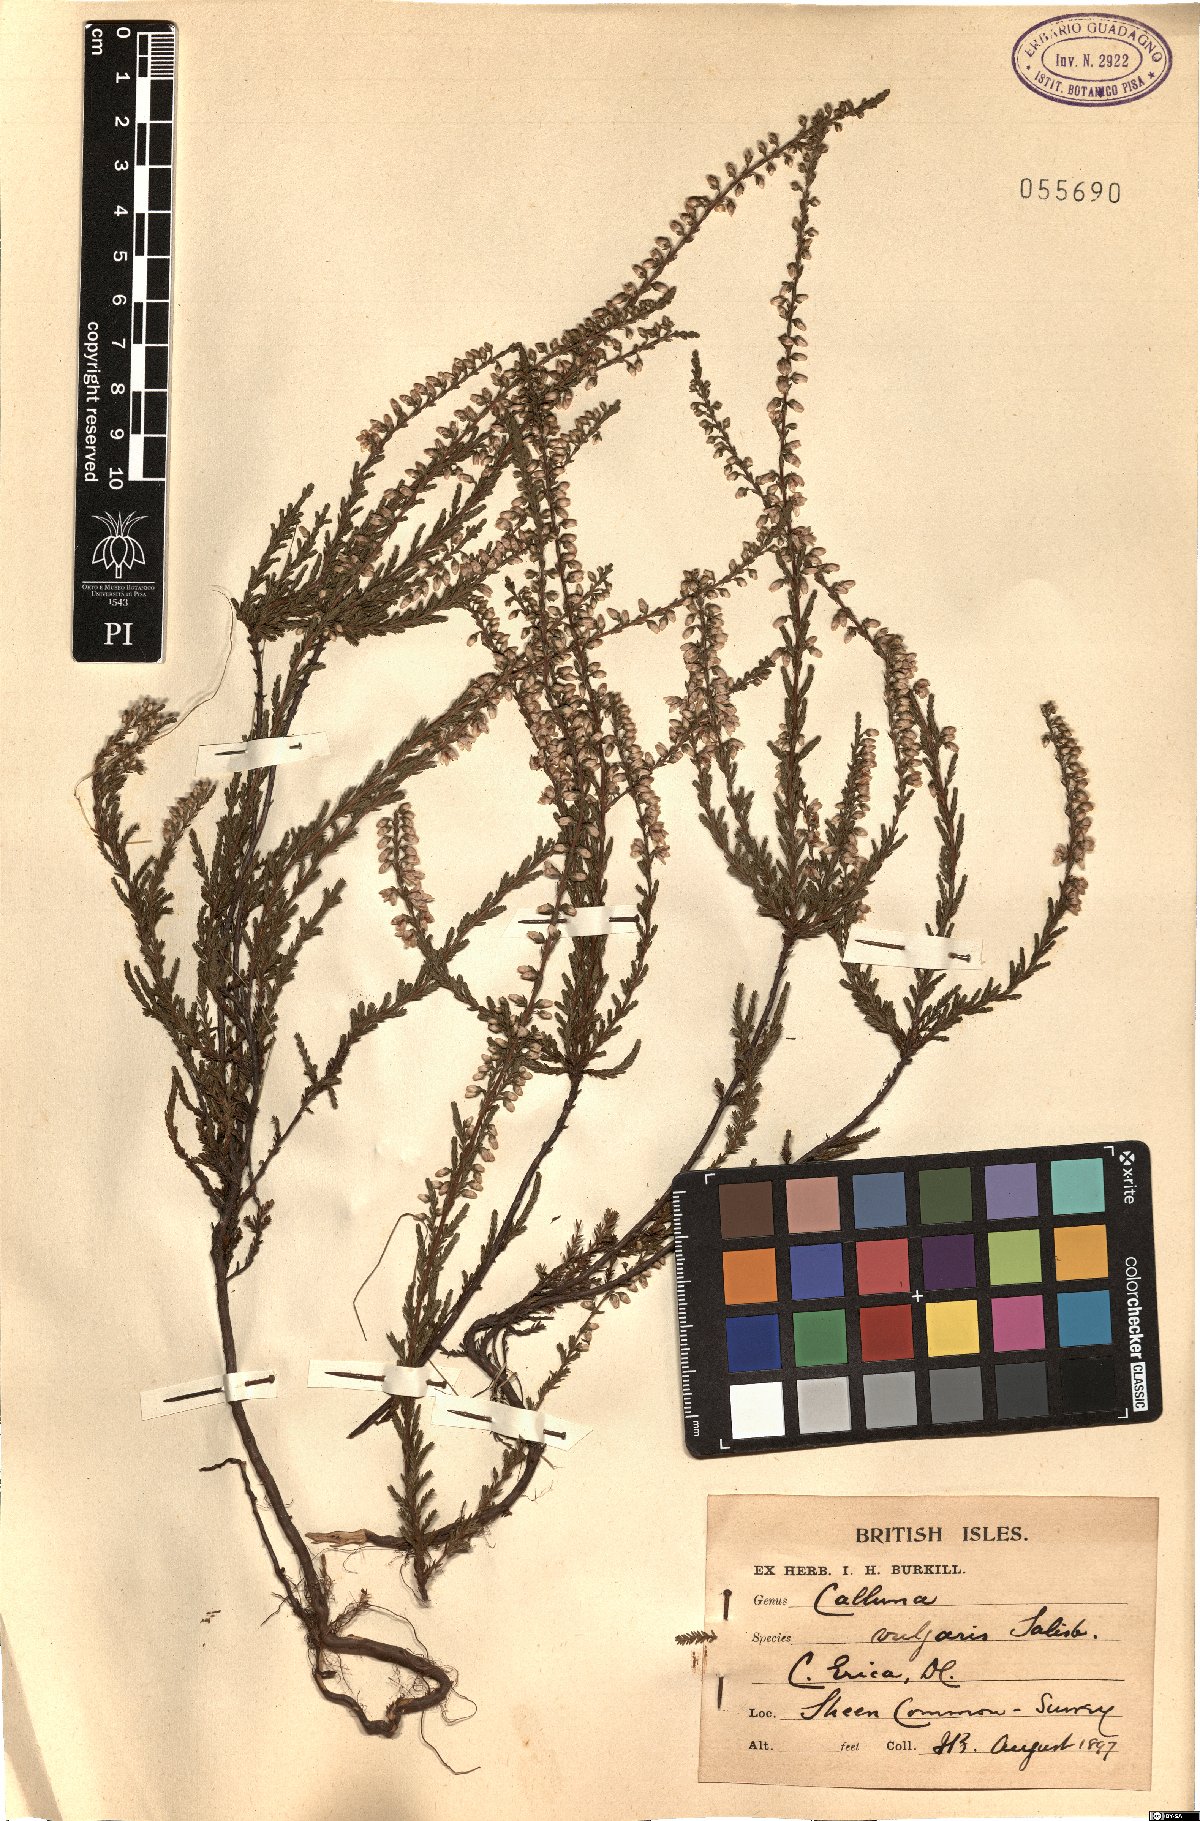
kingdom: Plantae
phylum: Tracheophyta
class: Magnoliopsida
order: Ericales
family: Ericaceae
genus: Calluna
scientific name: Calluna vulgaris
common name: Heather
